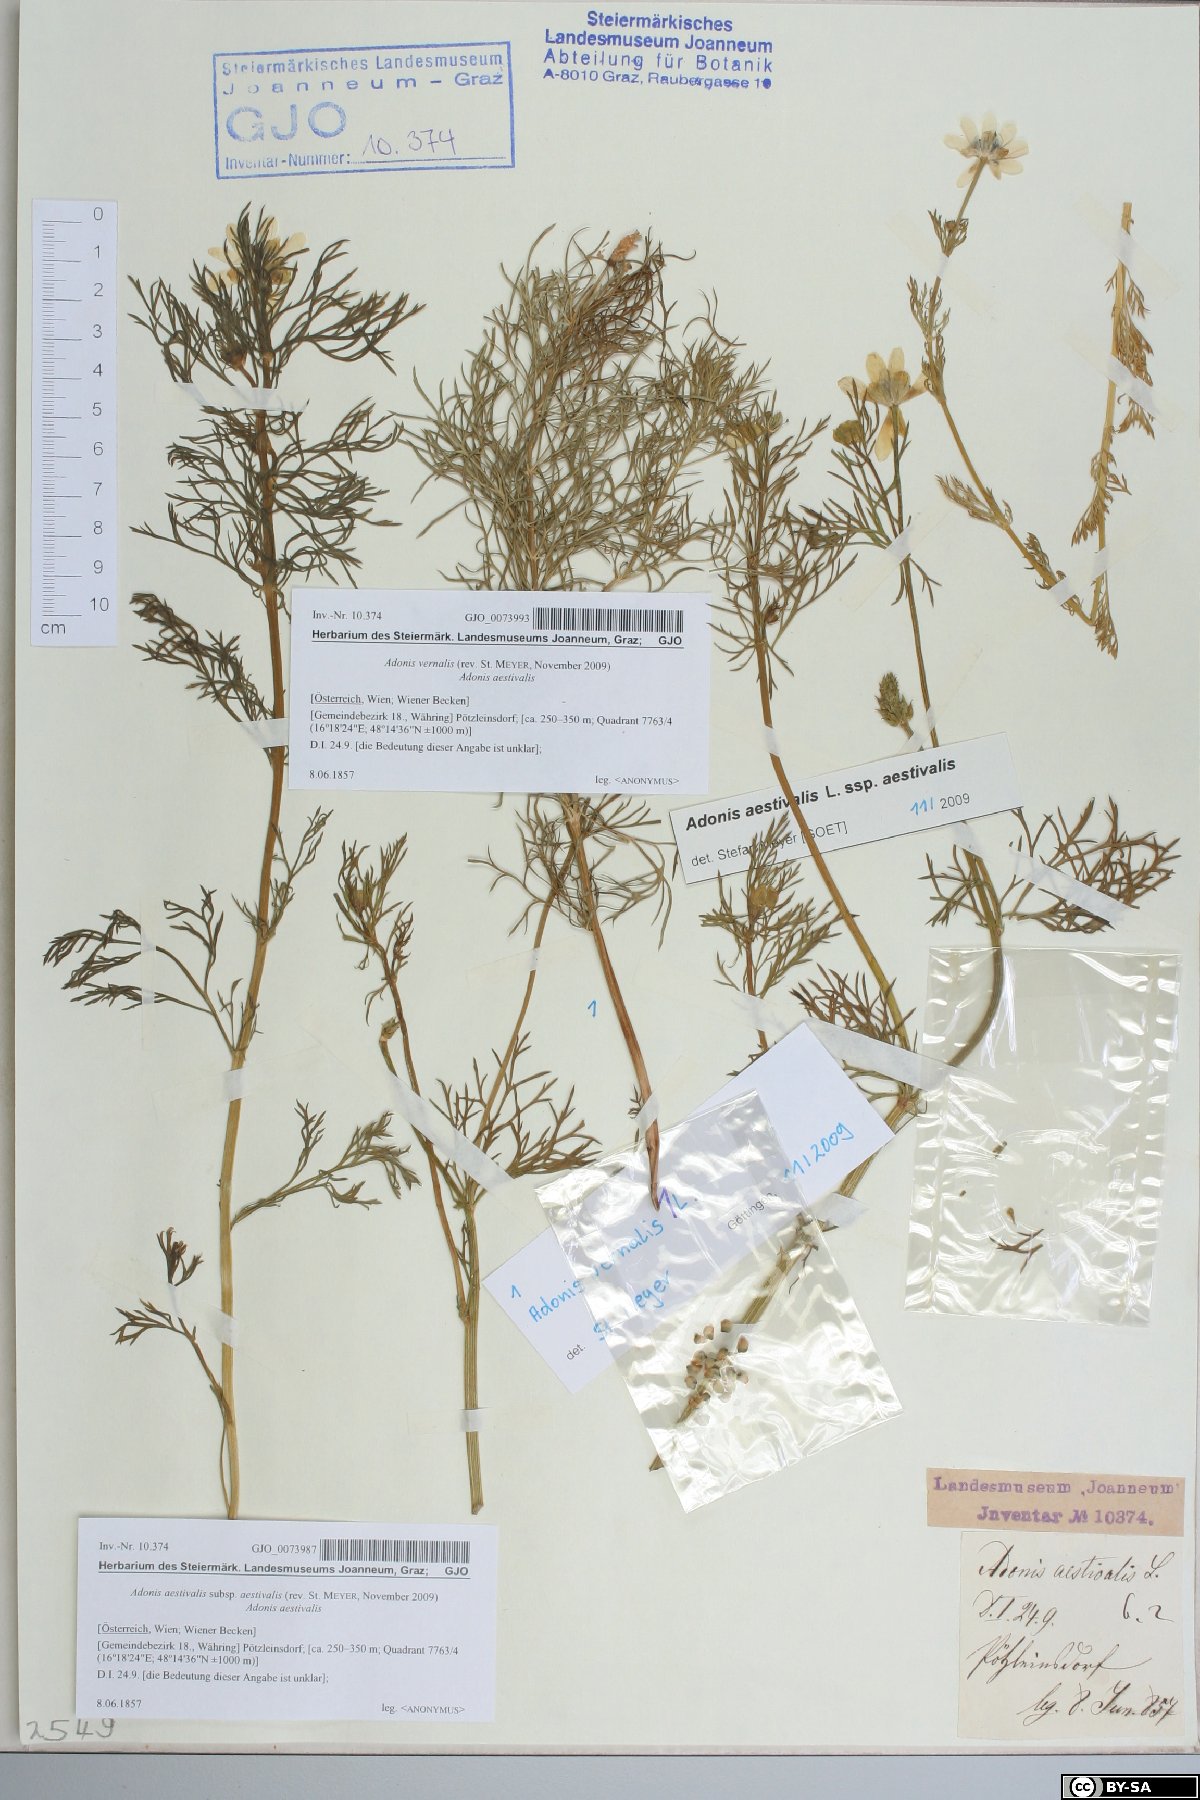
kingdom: Plantae
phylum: Tracheophyta
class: Magnoliopsida
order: Ranunculales
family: Ranunculaceae
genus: Adonis
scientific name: Adonis vernalis
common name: Yellow pheasants-eye
